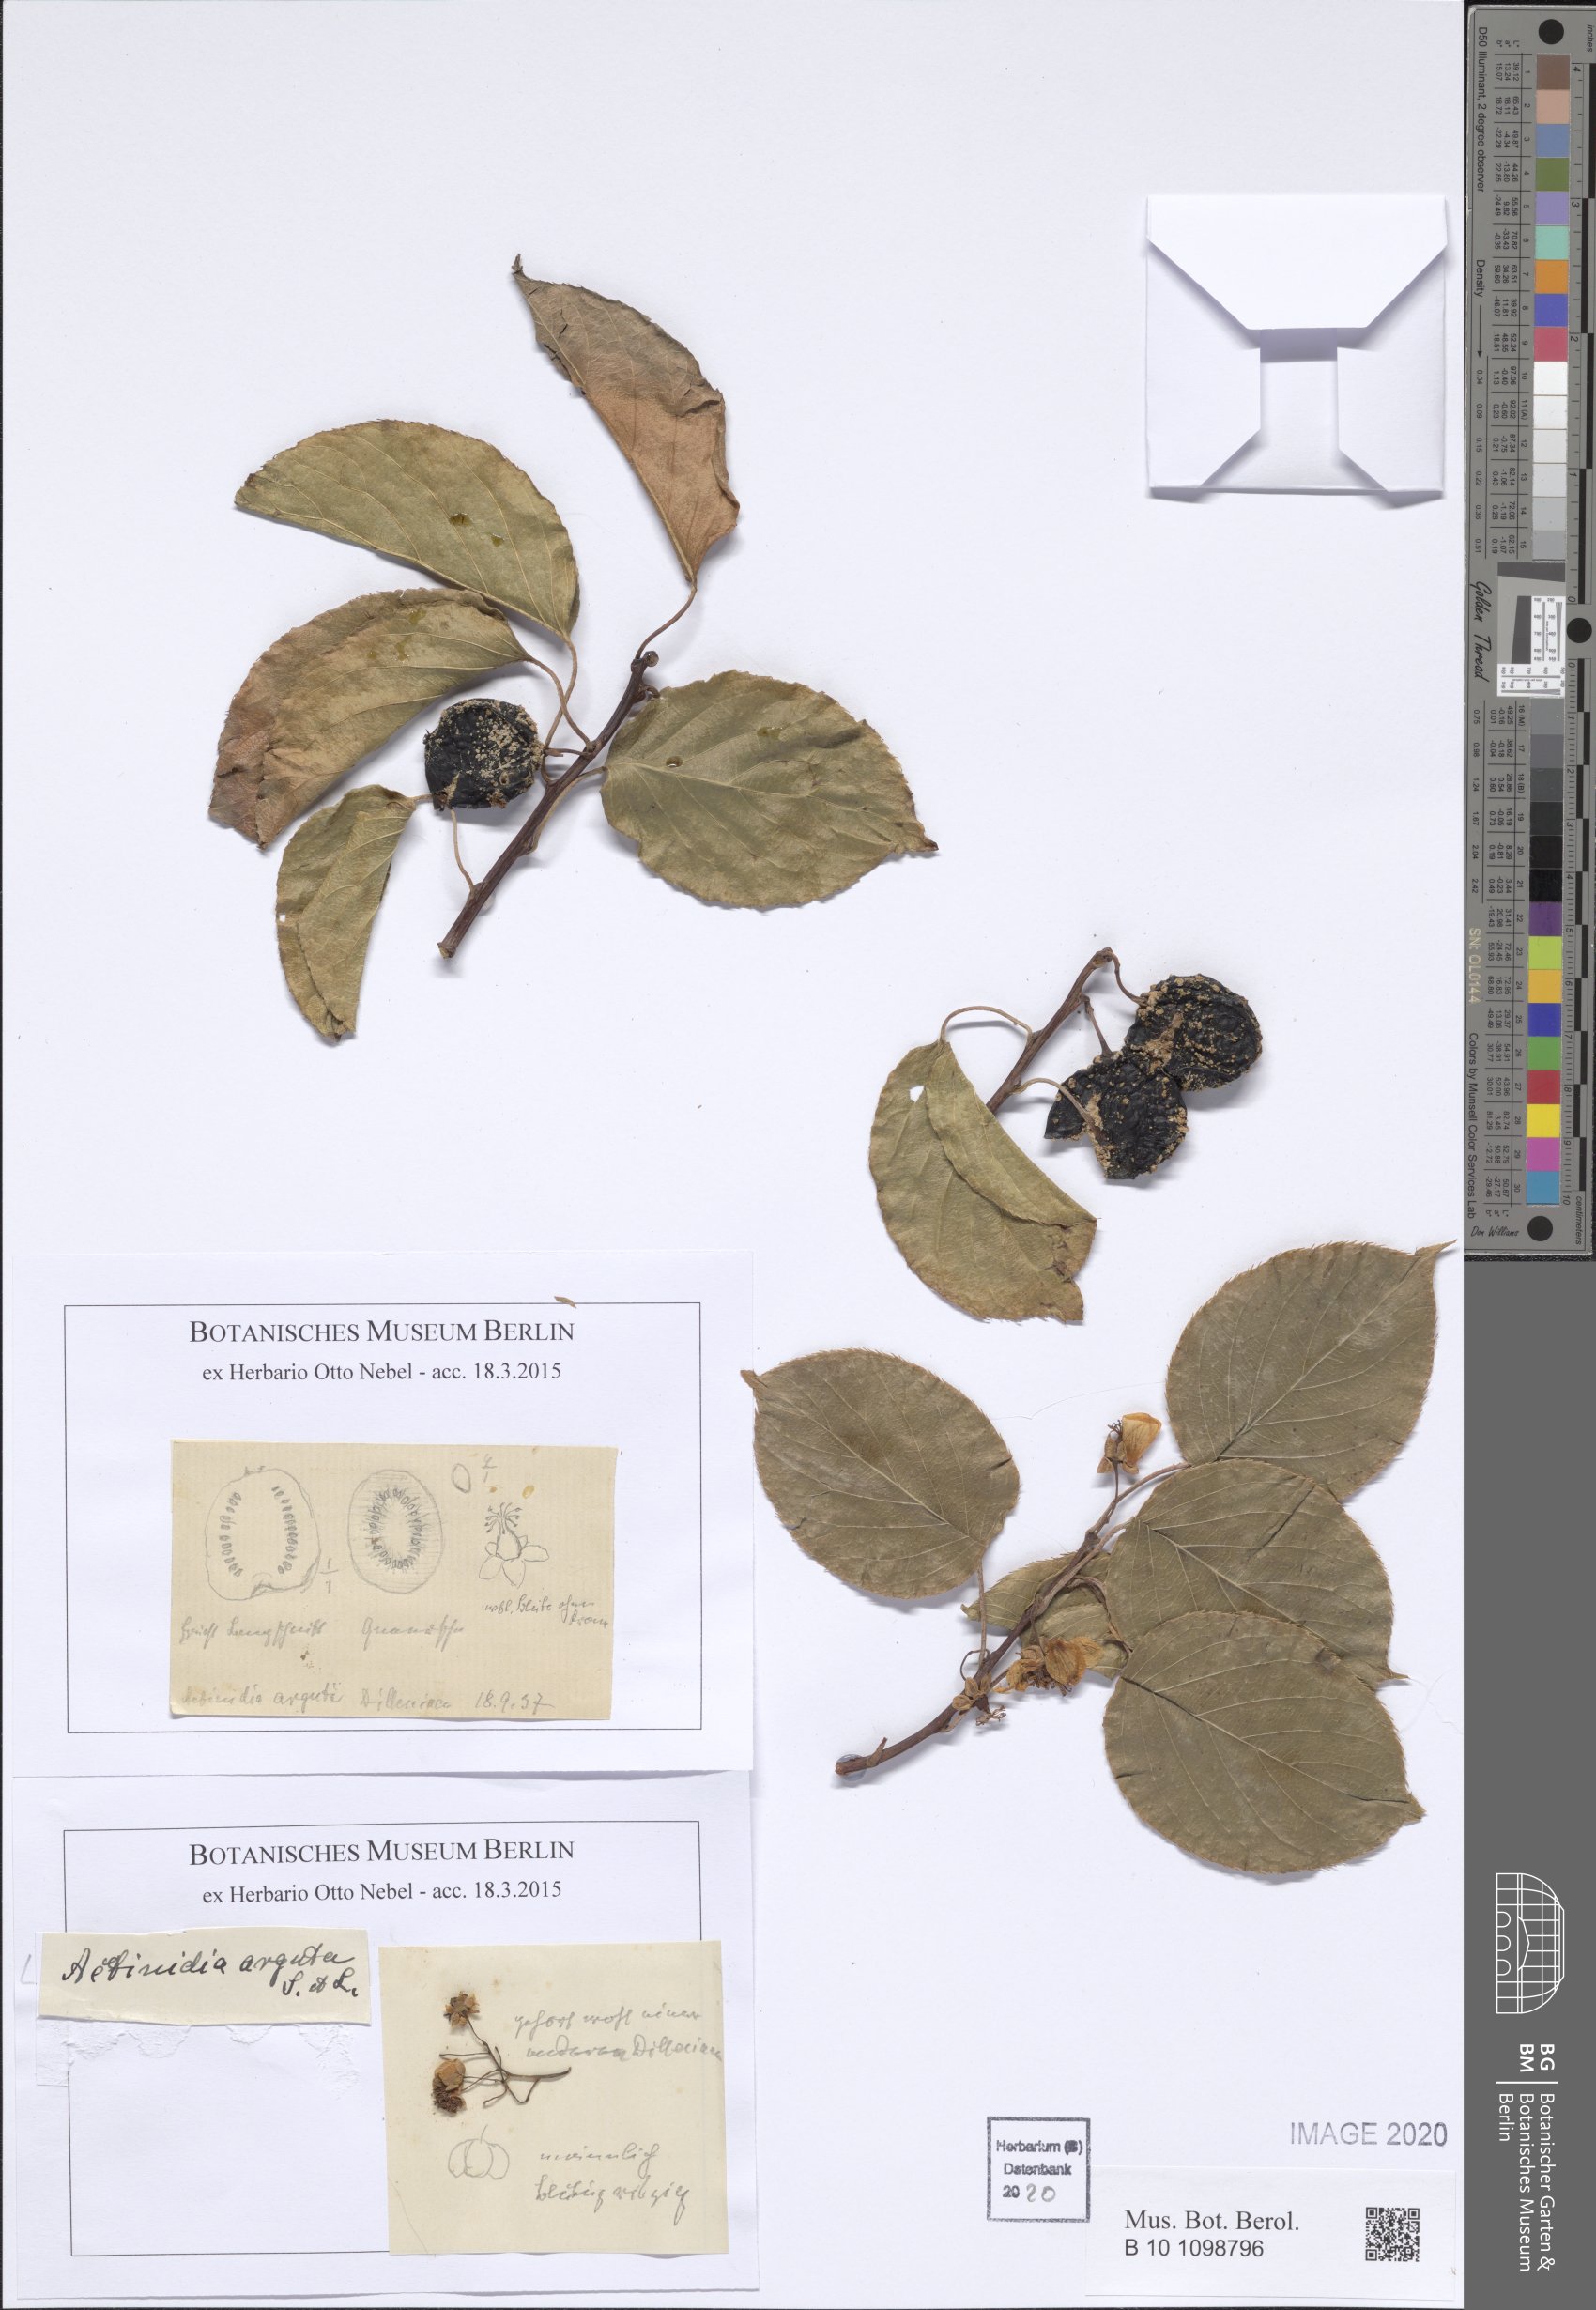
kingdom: Plantae
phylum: Tracheophyta
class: Magnoliopsida
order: Ericales
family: Actinidiaceae
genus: Actinidia
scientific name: Actinidia arguta
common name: Tara vine
